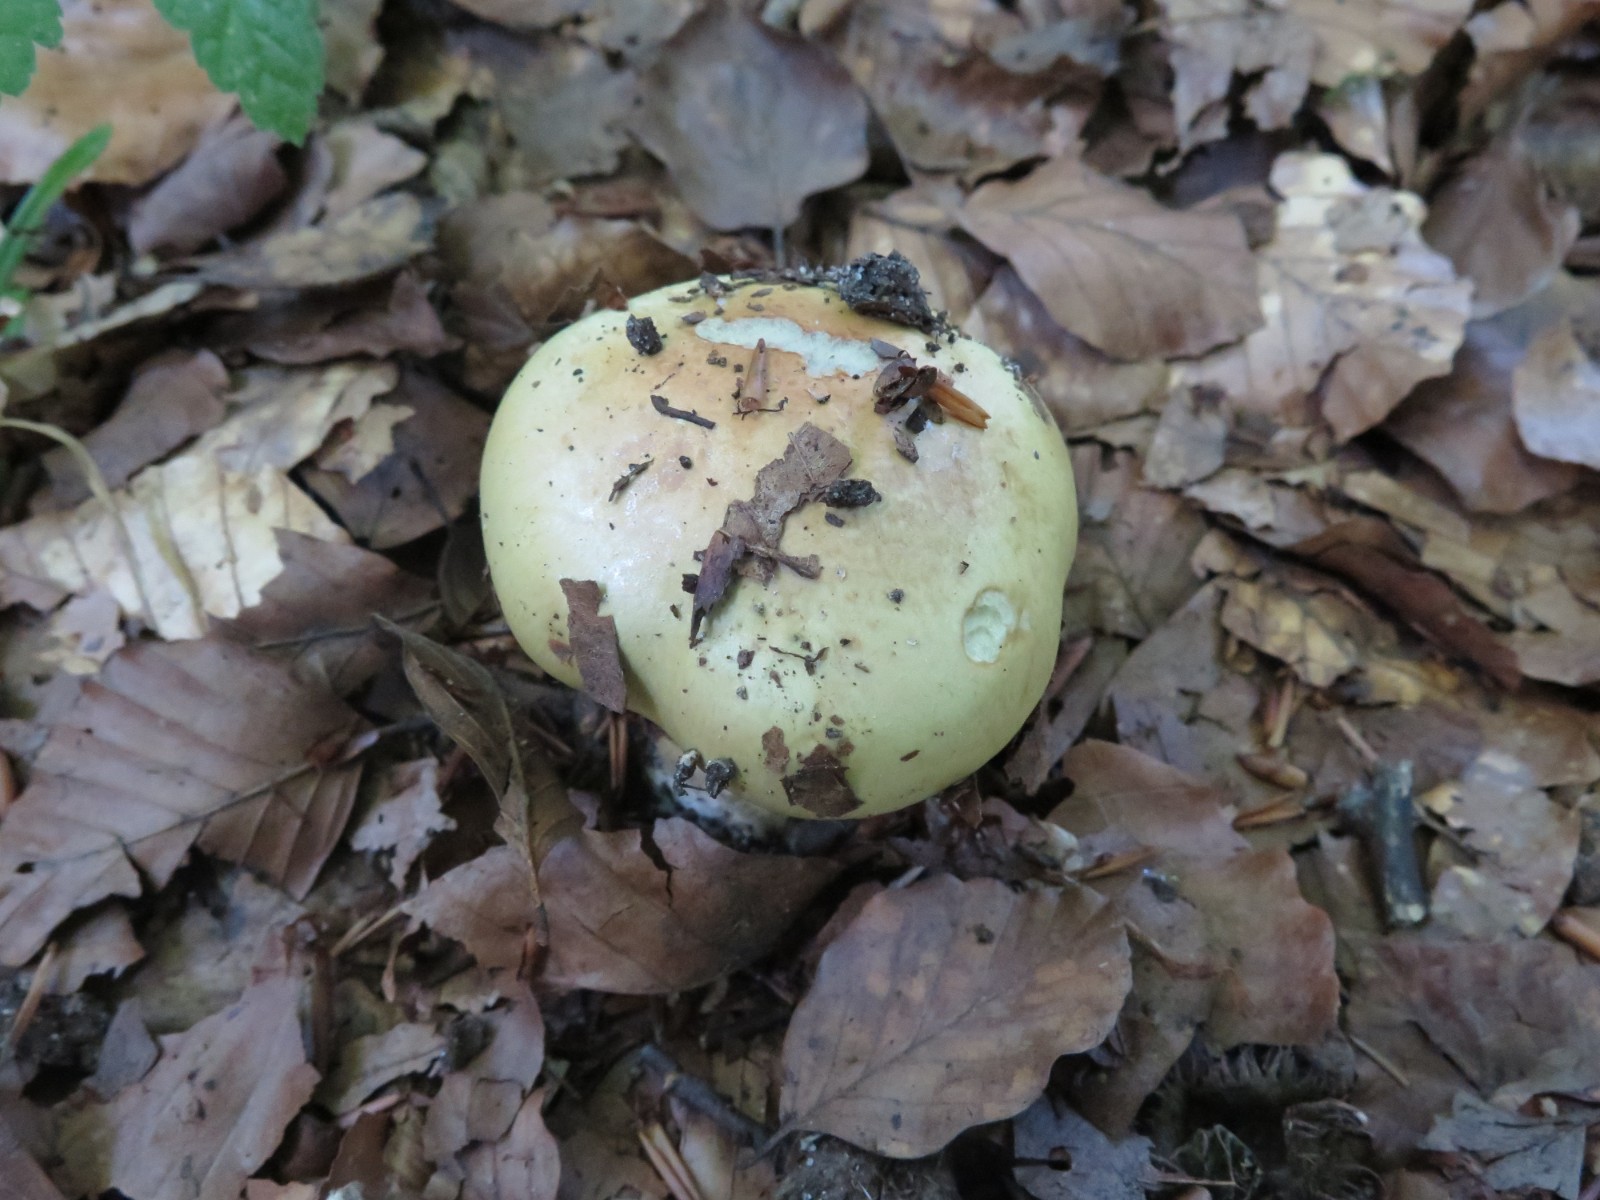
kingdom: Fungi
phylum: Basidiomycota
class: Agaricomycetes
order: Agaricales
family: Cortinariaceae
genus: Calonarius
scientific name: Calonarius elegantissimus
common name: orangegylden slørhat
